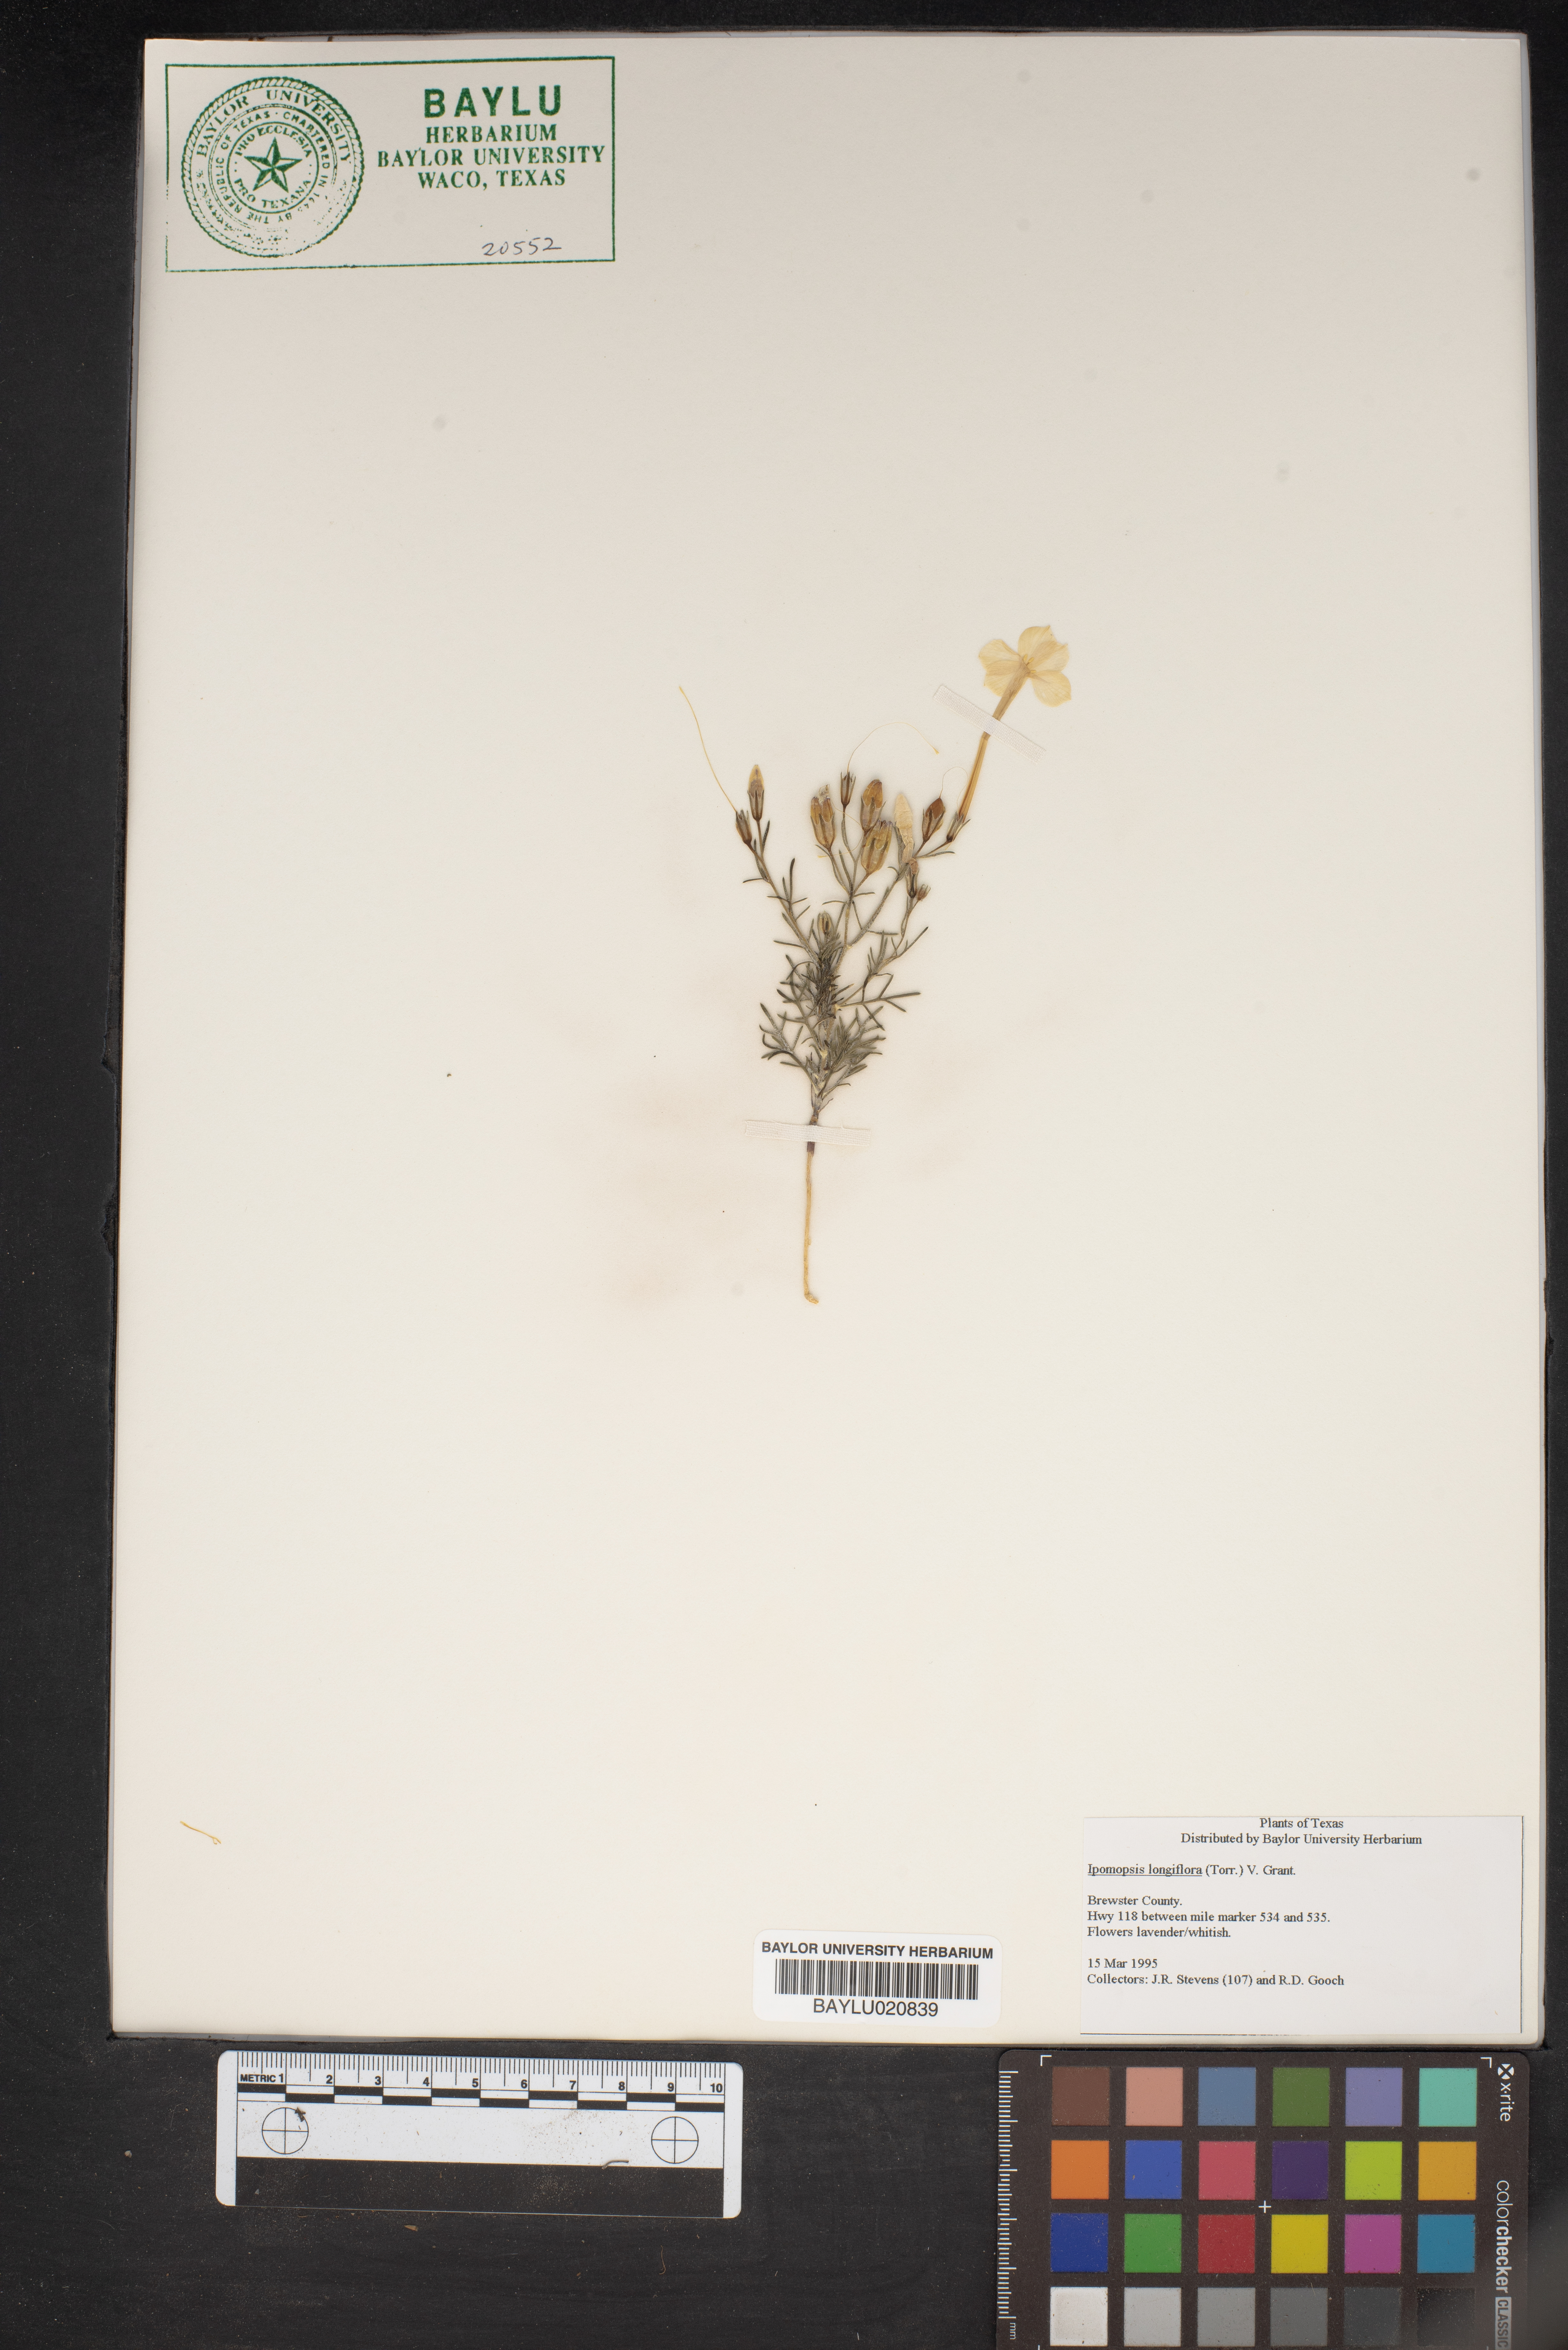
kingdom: Plantae
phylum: Tracheophyta
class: Magnoliopsida
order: Ericales
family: Polemoniaceae
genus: Ipomopsis
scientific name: Ipomopsis longiflora
